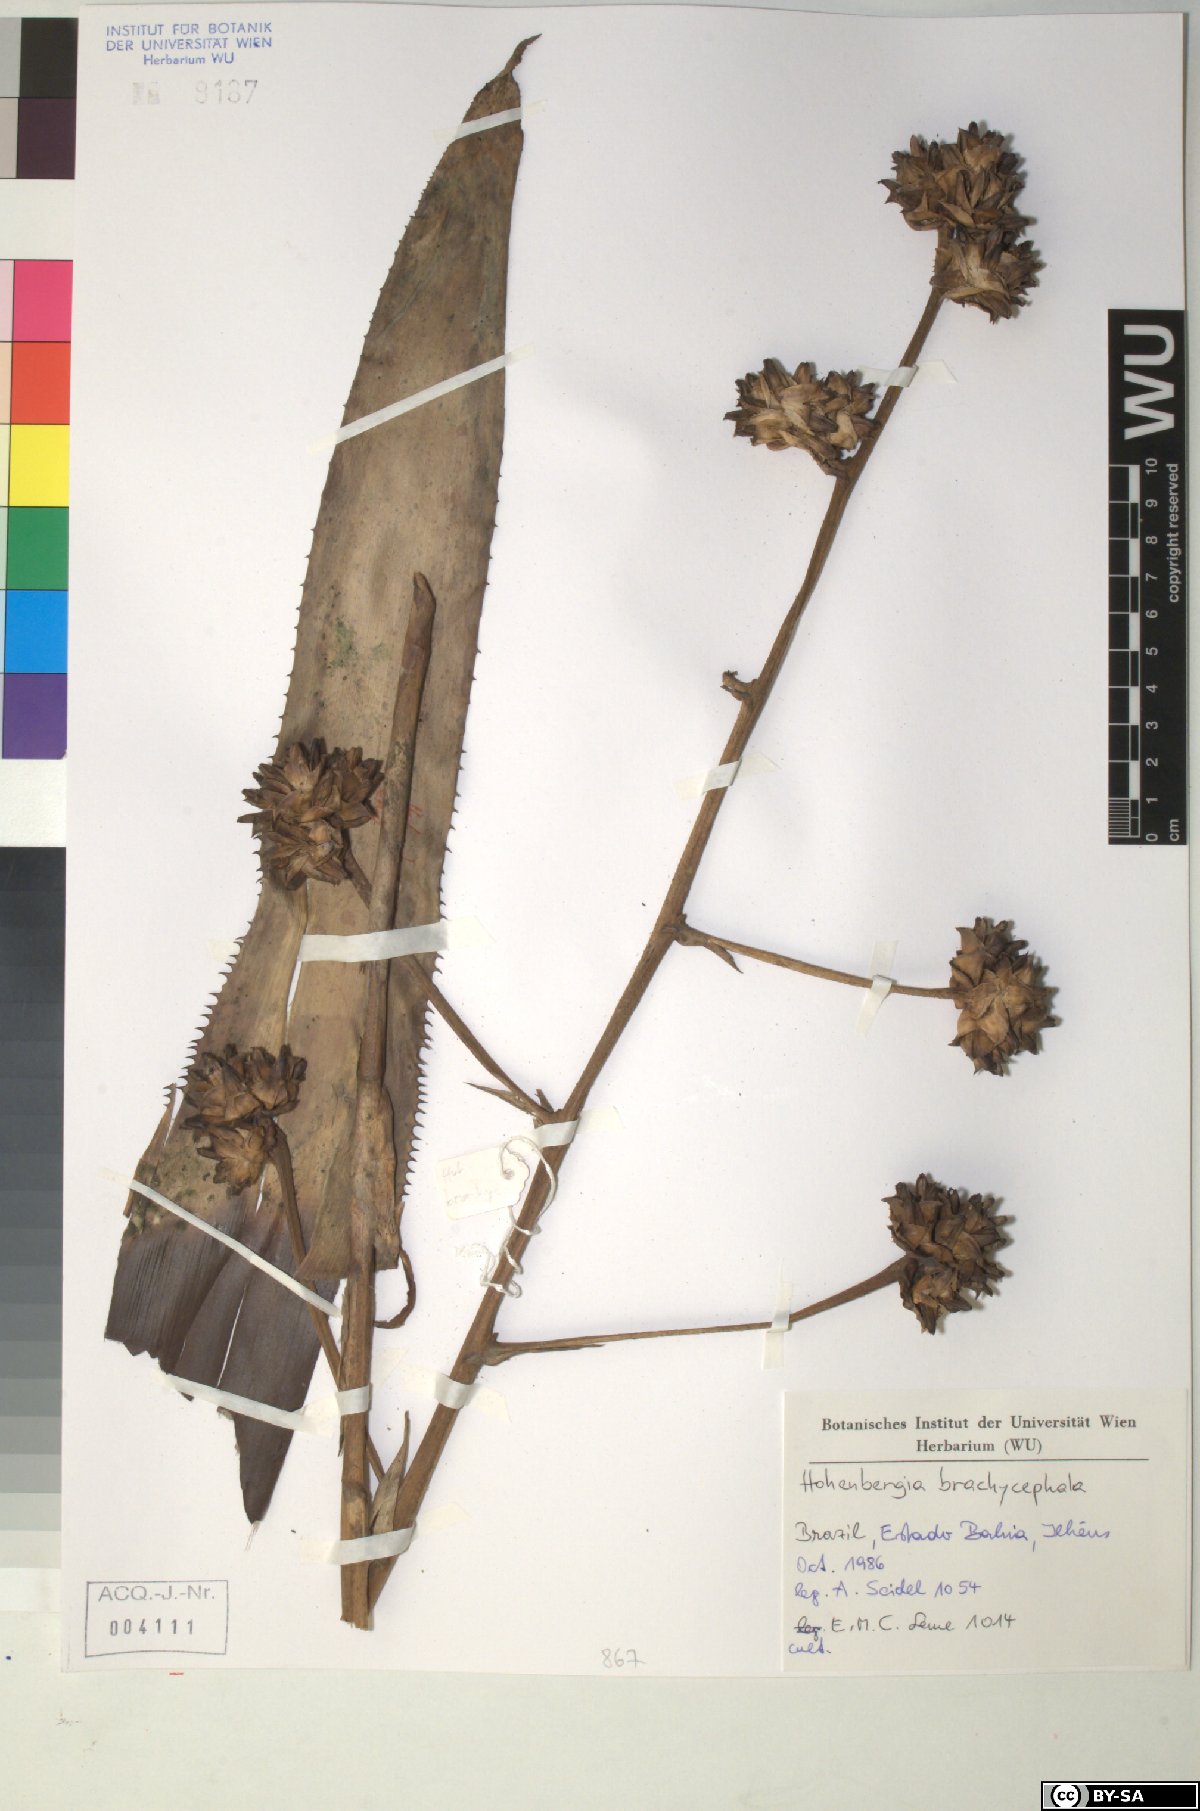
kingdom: Plantae
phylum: Tracheophyta
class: Liliopsida
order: Poales
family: Bromeliaceae
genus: Hohenbergia
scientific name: Hohenbergia brachycephala
